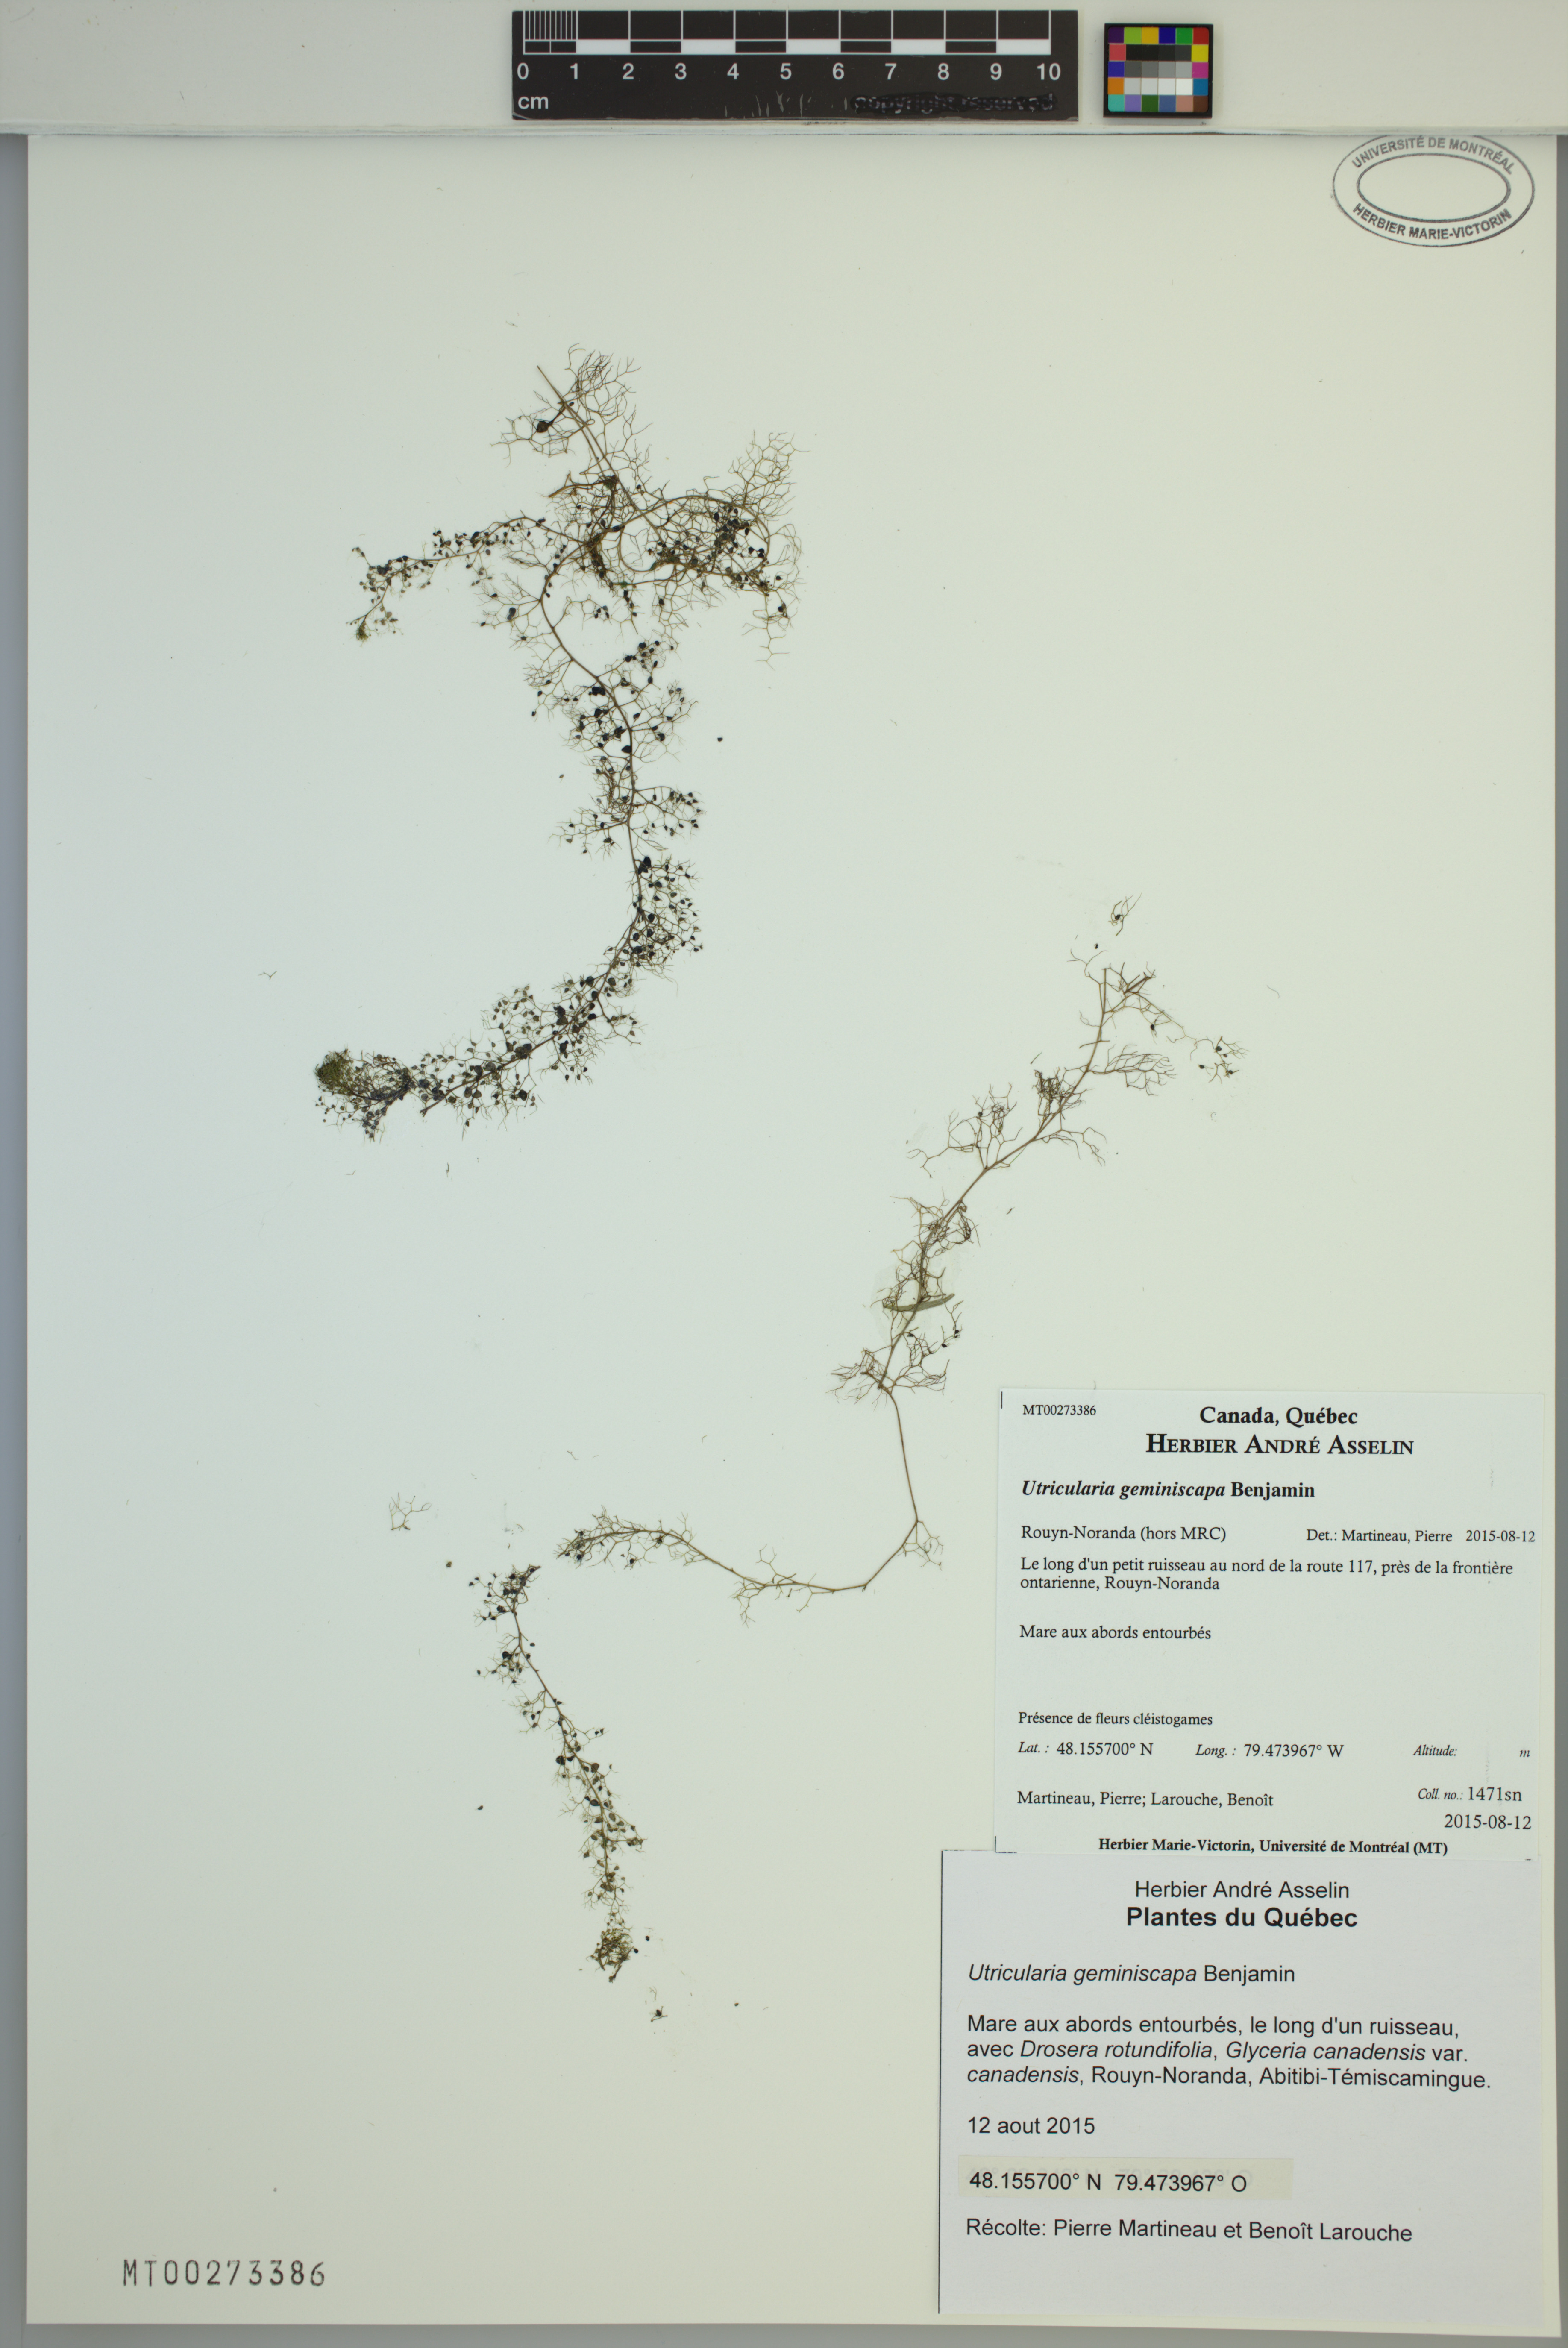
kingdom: Plantae
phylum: Tracheophyta
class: Magnoliopsida
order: Lamiales
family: Lentibulariaceae
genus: Utricularia
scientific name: Utricularia geminiscapa
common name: Hidden-fruit bladderwort
